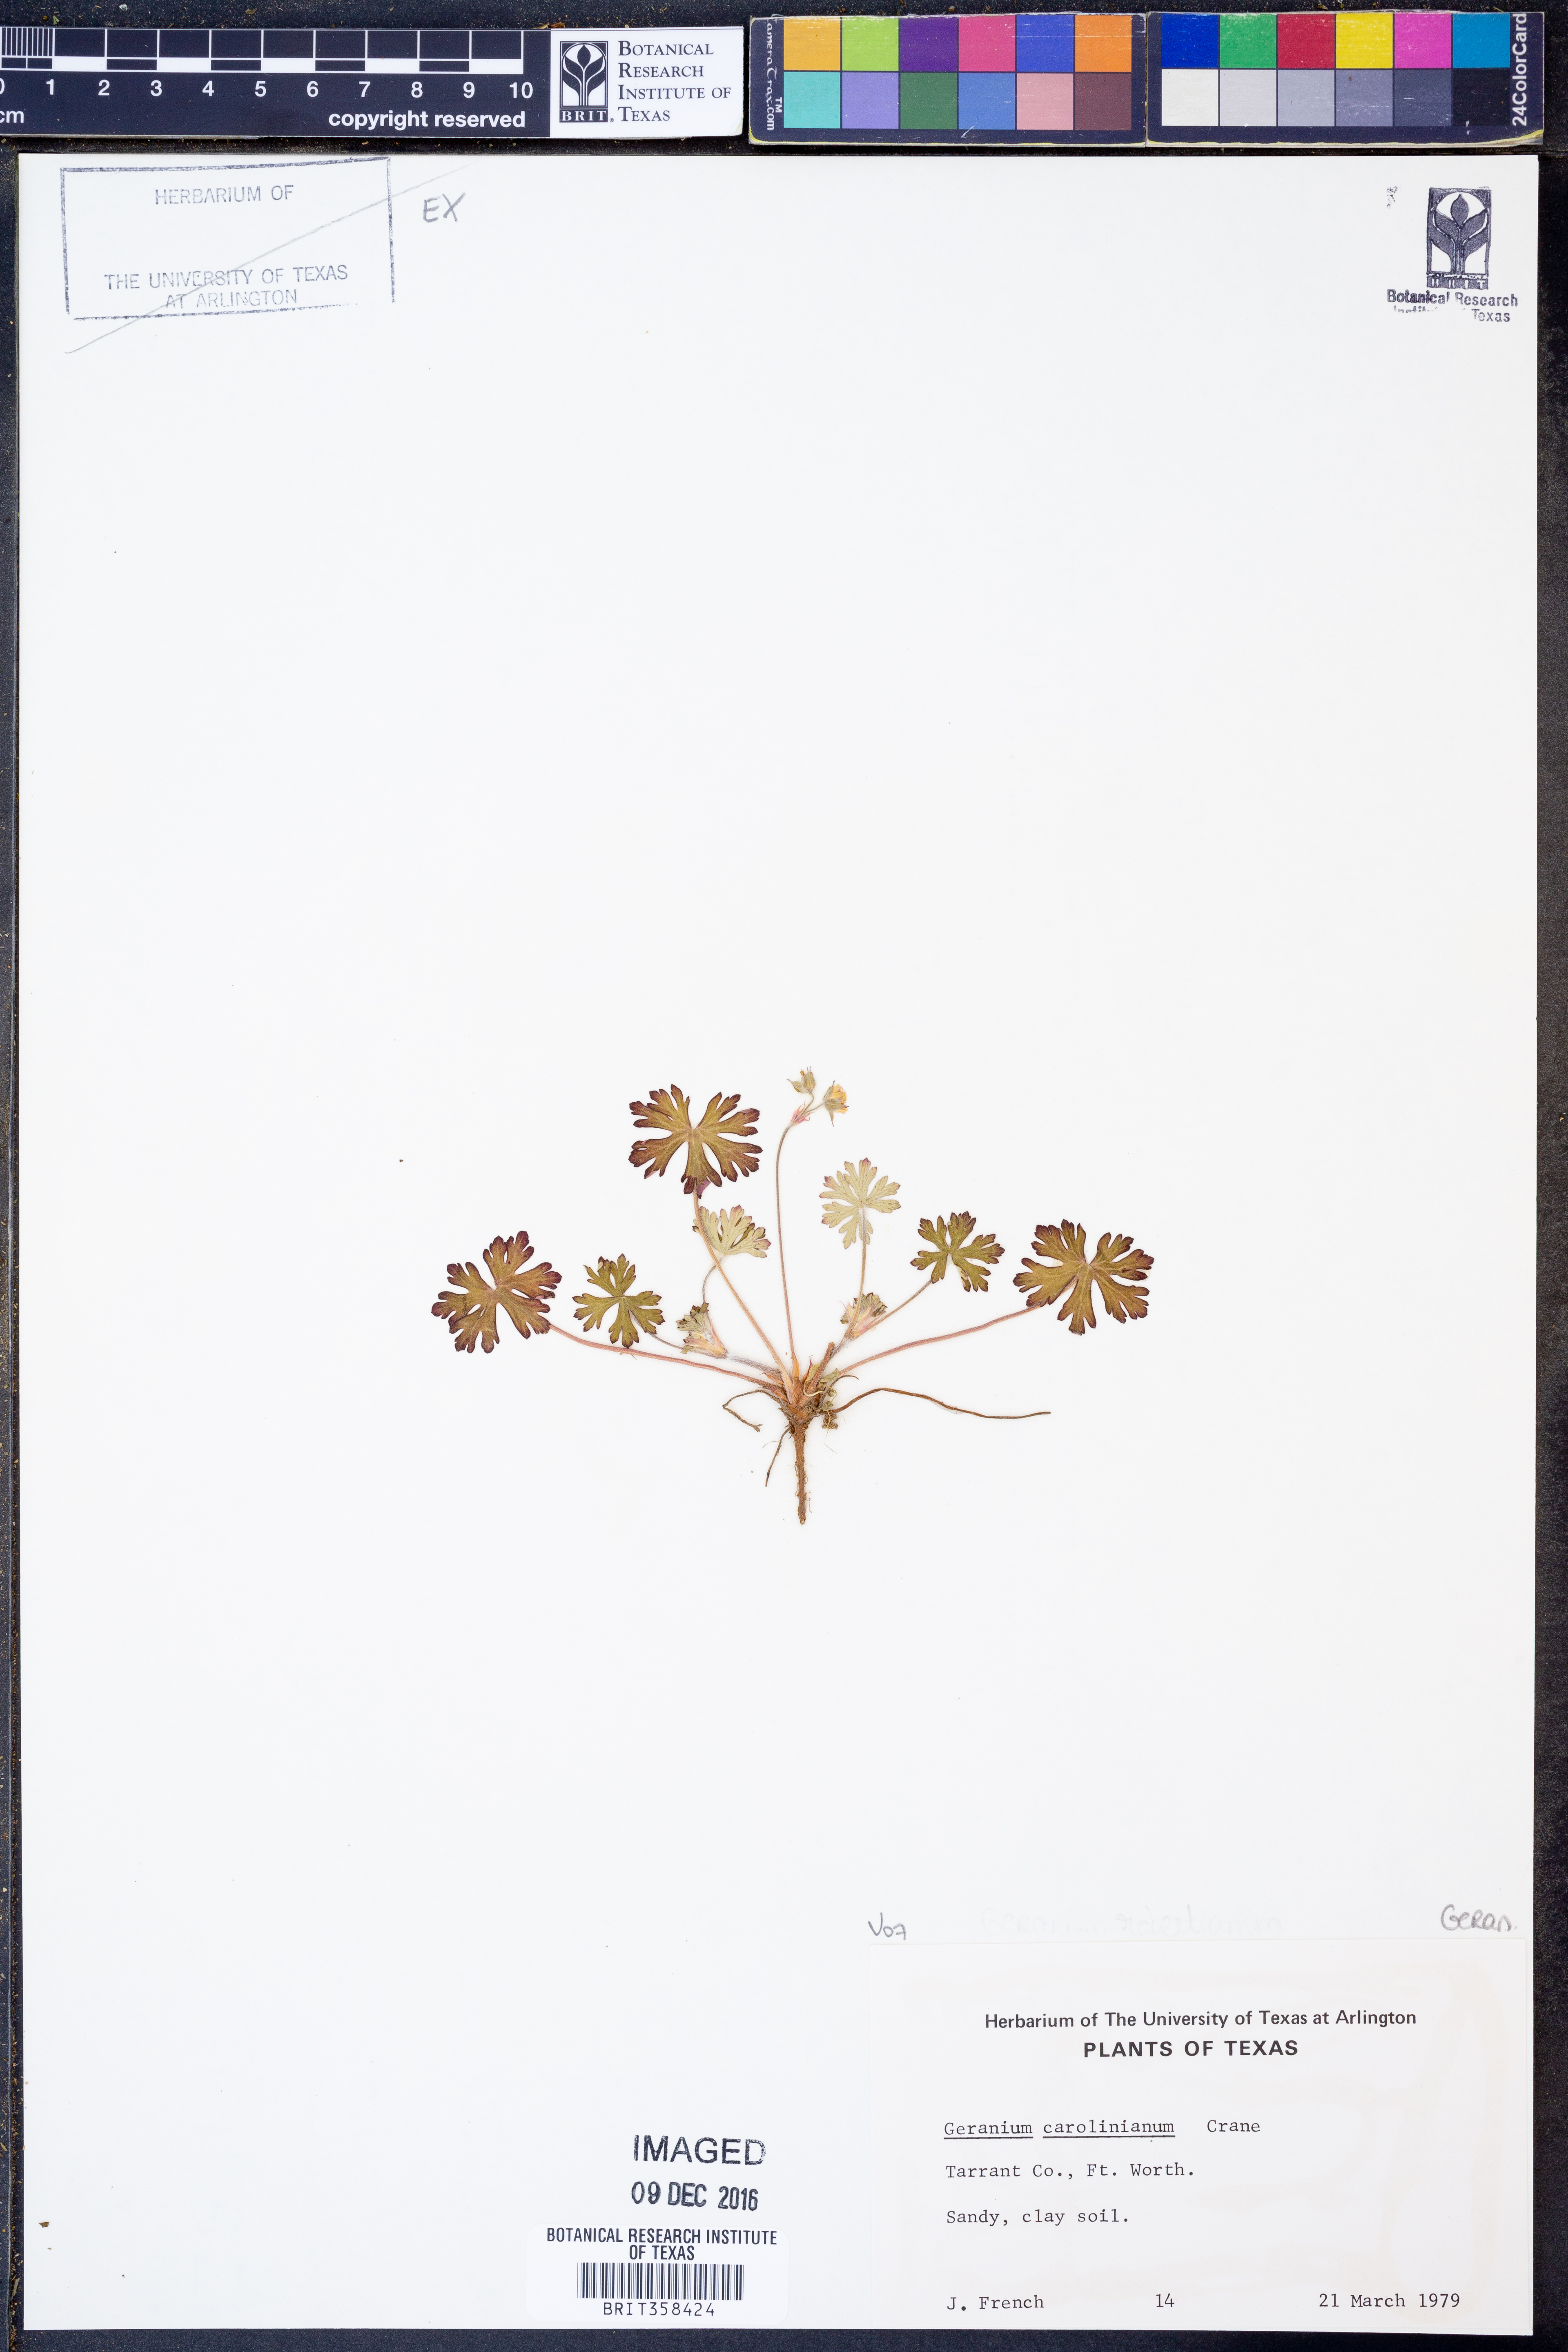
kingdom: Plantae
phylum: Tracheophyta
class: Magnoliopsida
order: Geraniales
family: Geraniaceae
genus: Geranium
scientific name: Geranium carolinianum
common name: Carolina crane's-bill
